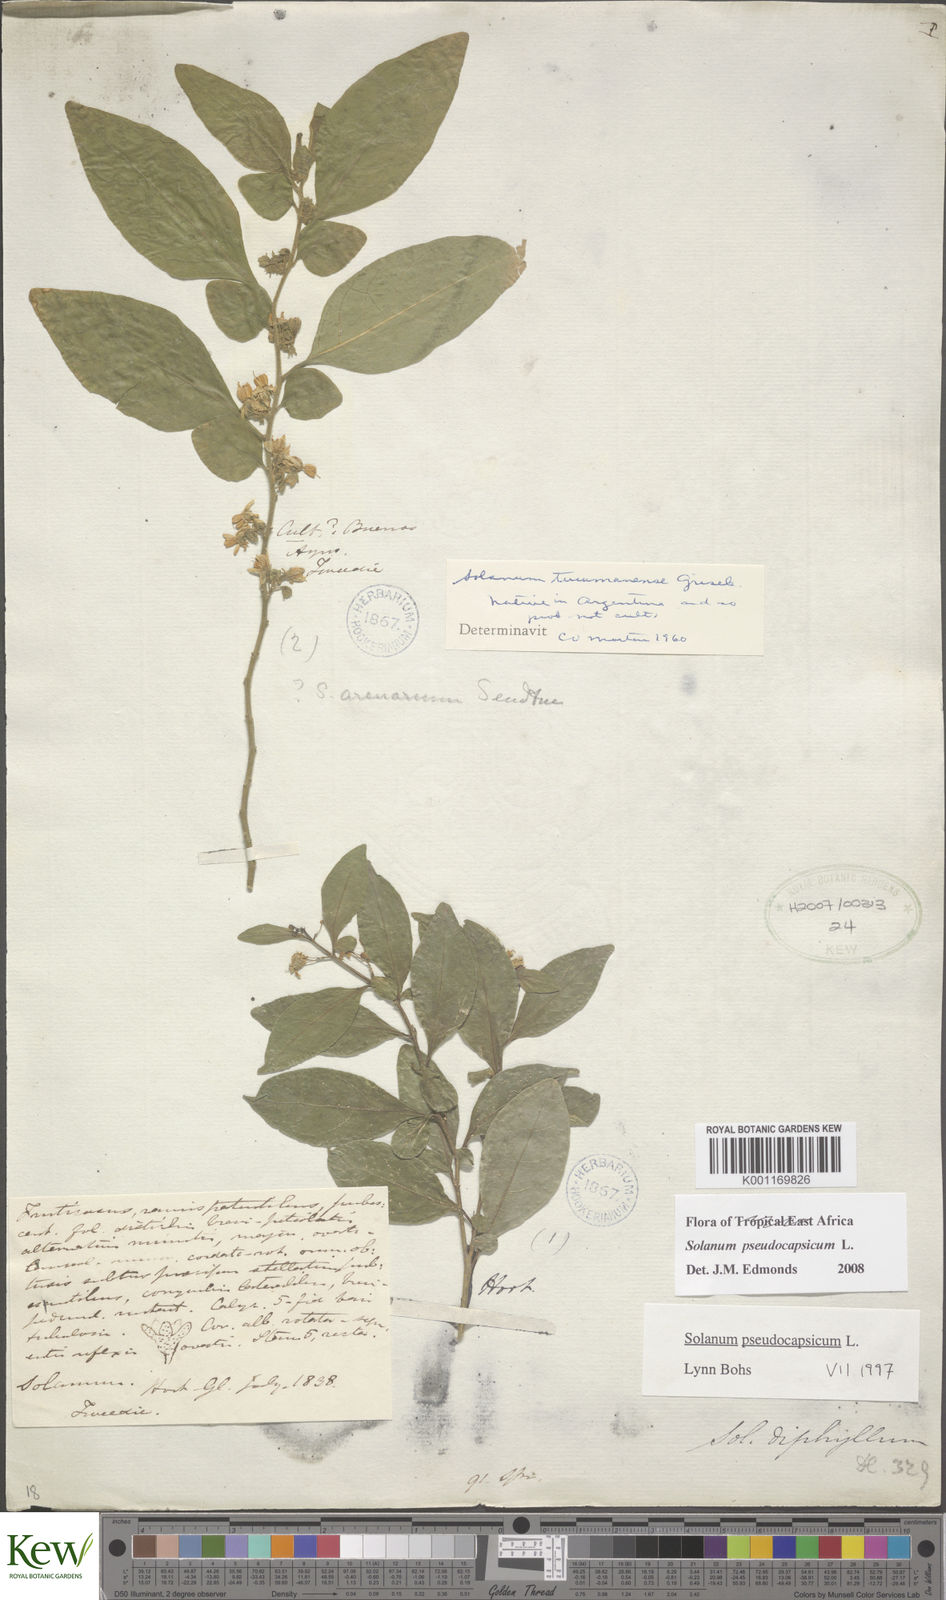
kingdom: Plantae
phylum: Tracheophyta
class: Magnoliopsida
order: Solanales
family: Solanaceae
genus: Solanum
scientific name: Solanum pseudocapsicum
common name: Jerusalem cherry
